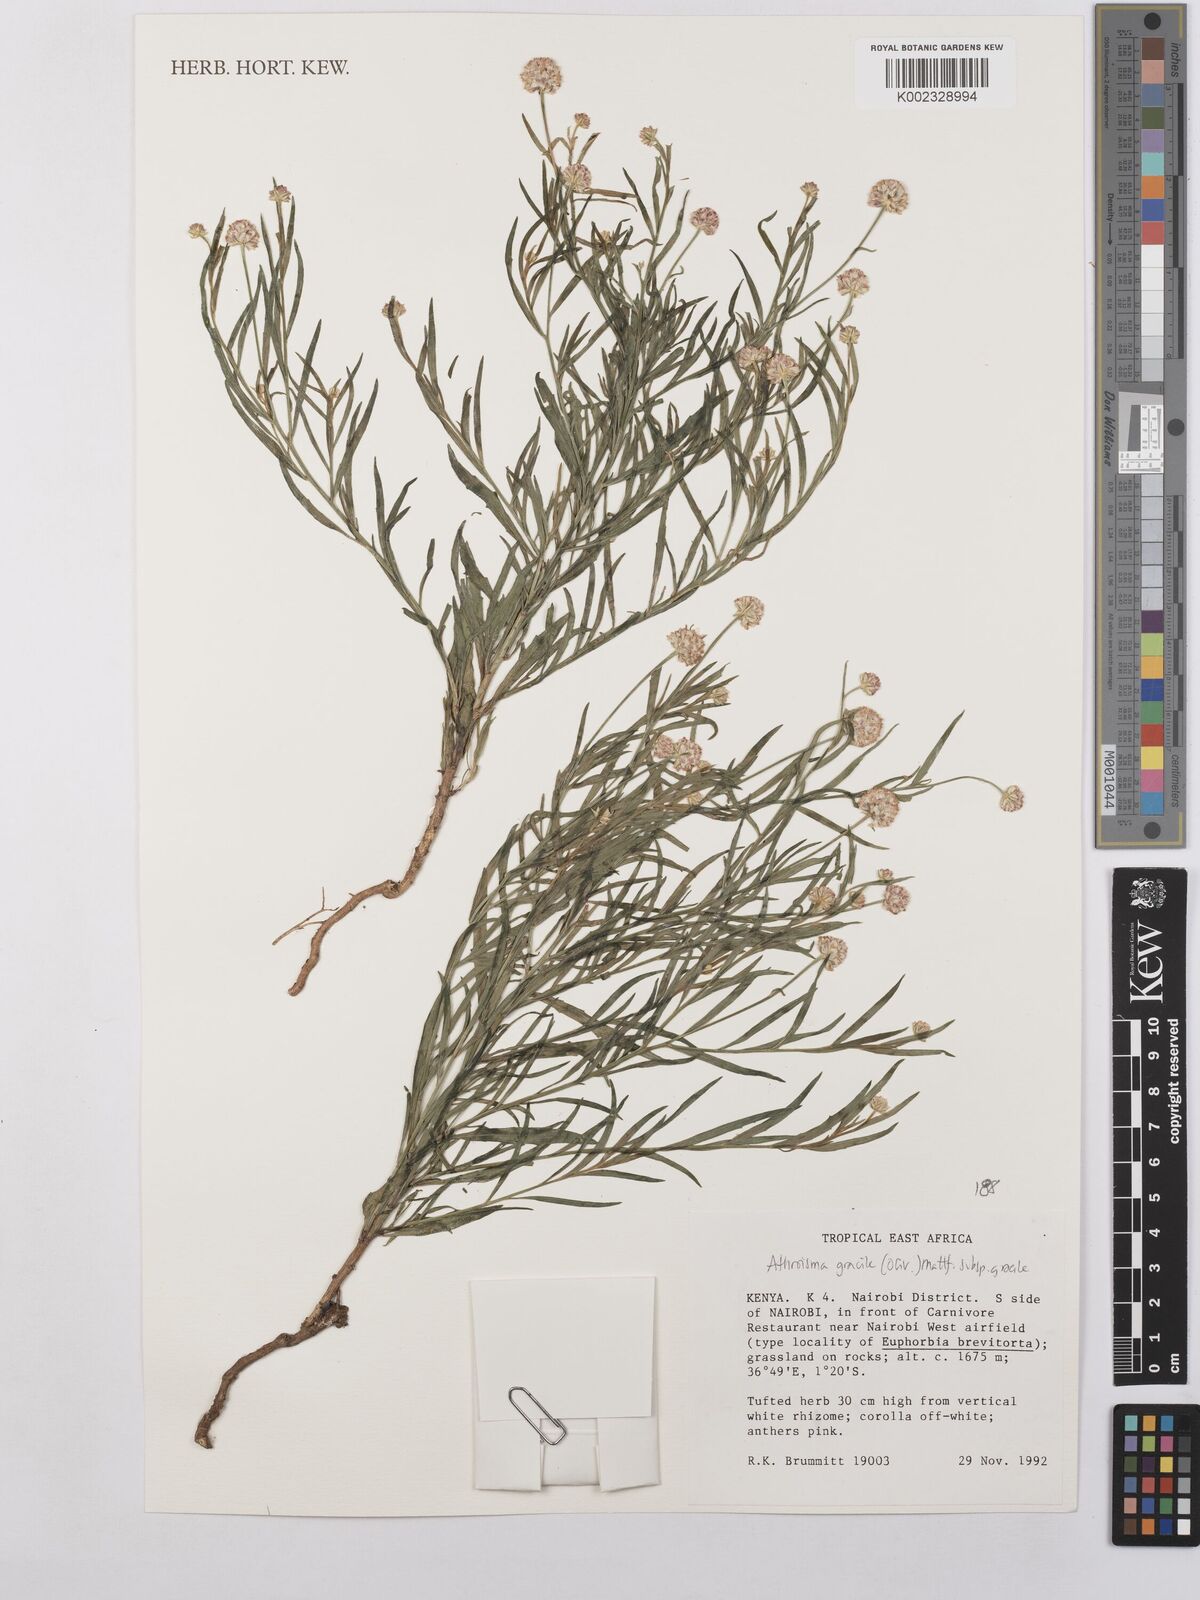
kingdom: Plantae
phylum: Tracheophyta
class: Magnoliopsida
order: Asterales
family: Asteraceae
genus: Athroisma
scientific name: Athroisma gracile
